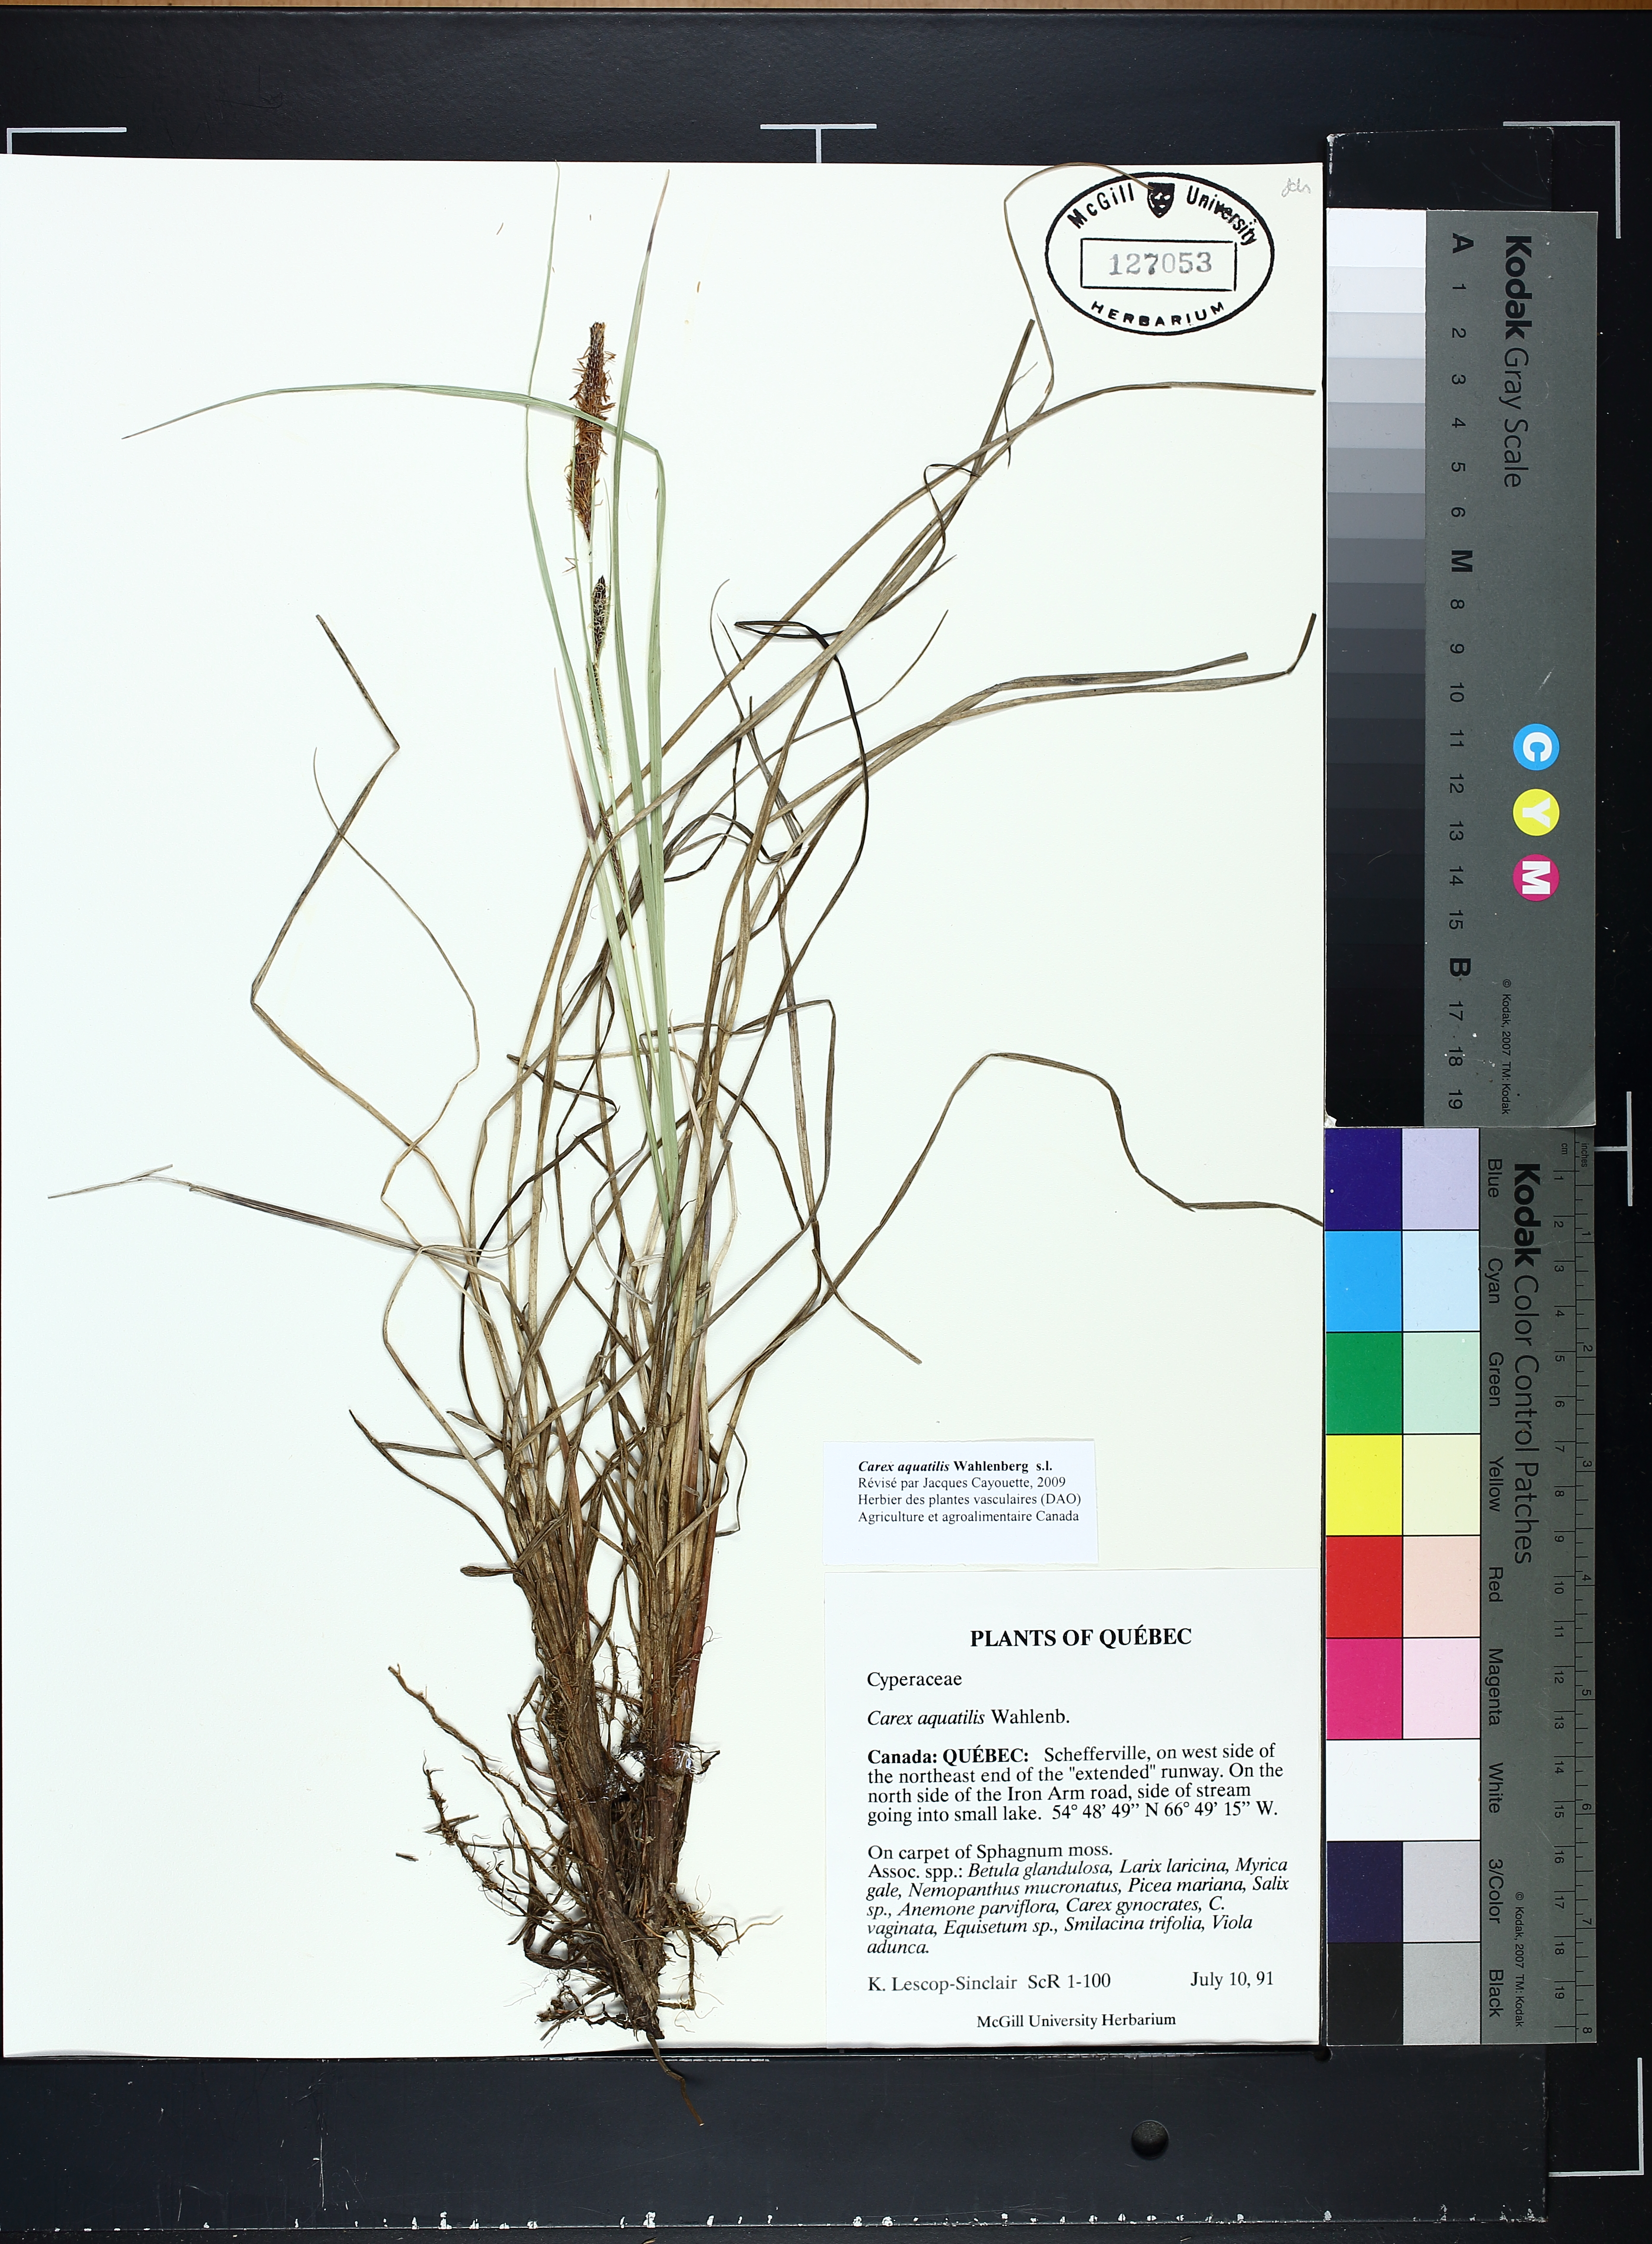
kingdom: Plantae
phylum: Tracheophyta
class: Liliopsida
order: Poales
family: Cyperaceae
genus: Carex
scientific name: Carex aquatilis
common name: Water sedge
